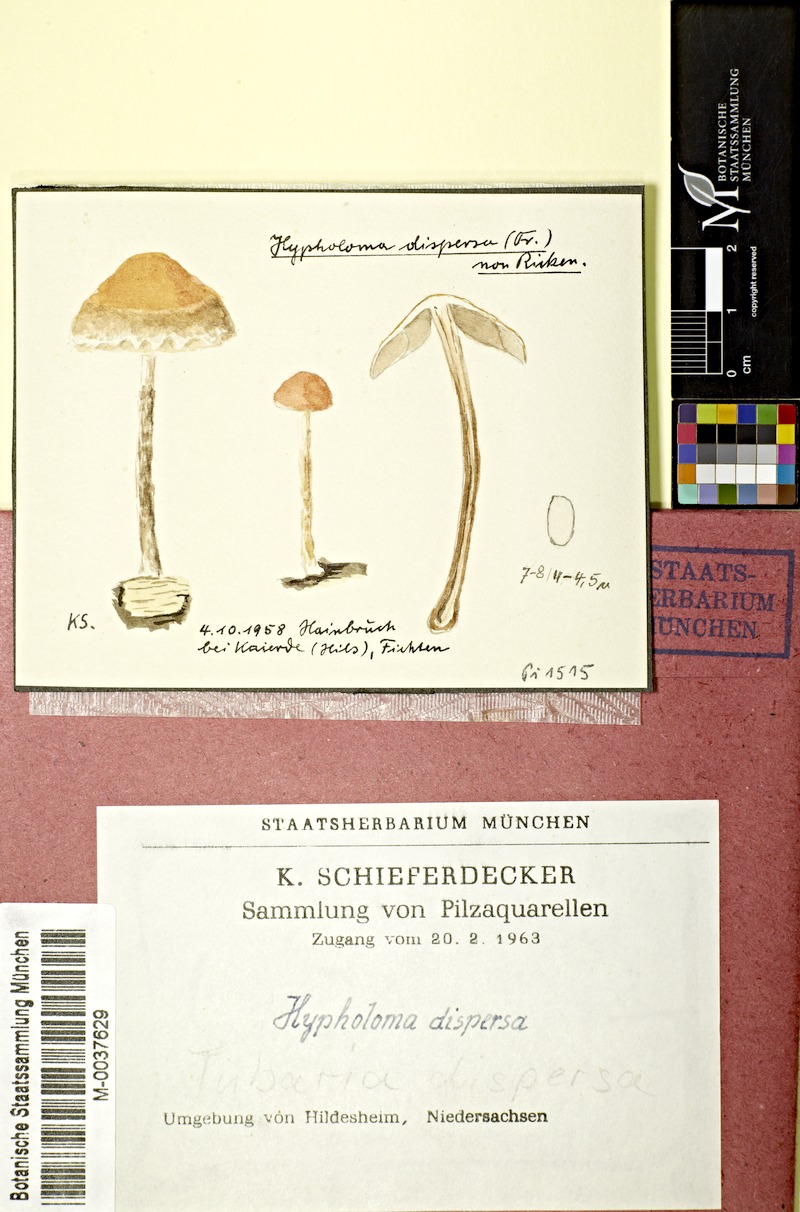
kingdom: Fungi
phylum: Basidiomycota
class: Agaricomycetes
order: Agaricales
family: Strophariaceae
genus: Hypholoma
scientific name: Hypholoma marginatum
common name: Snakeskin brownie
